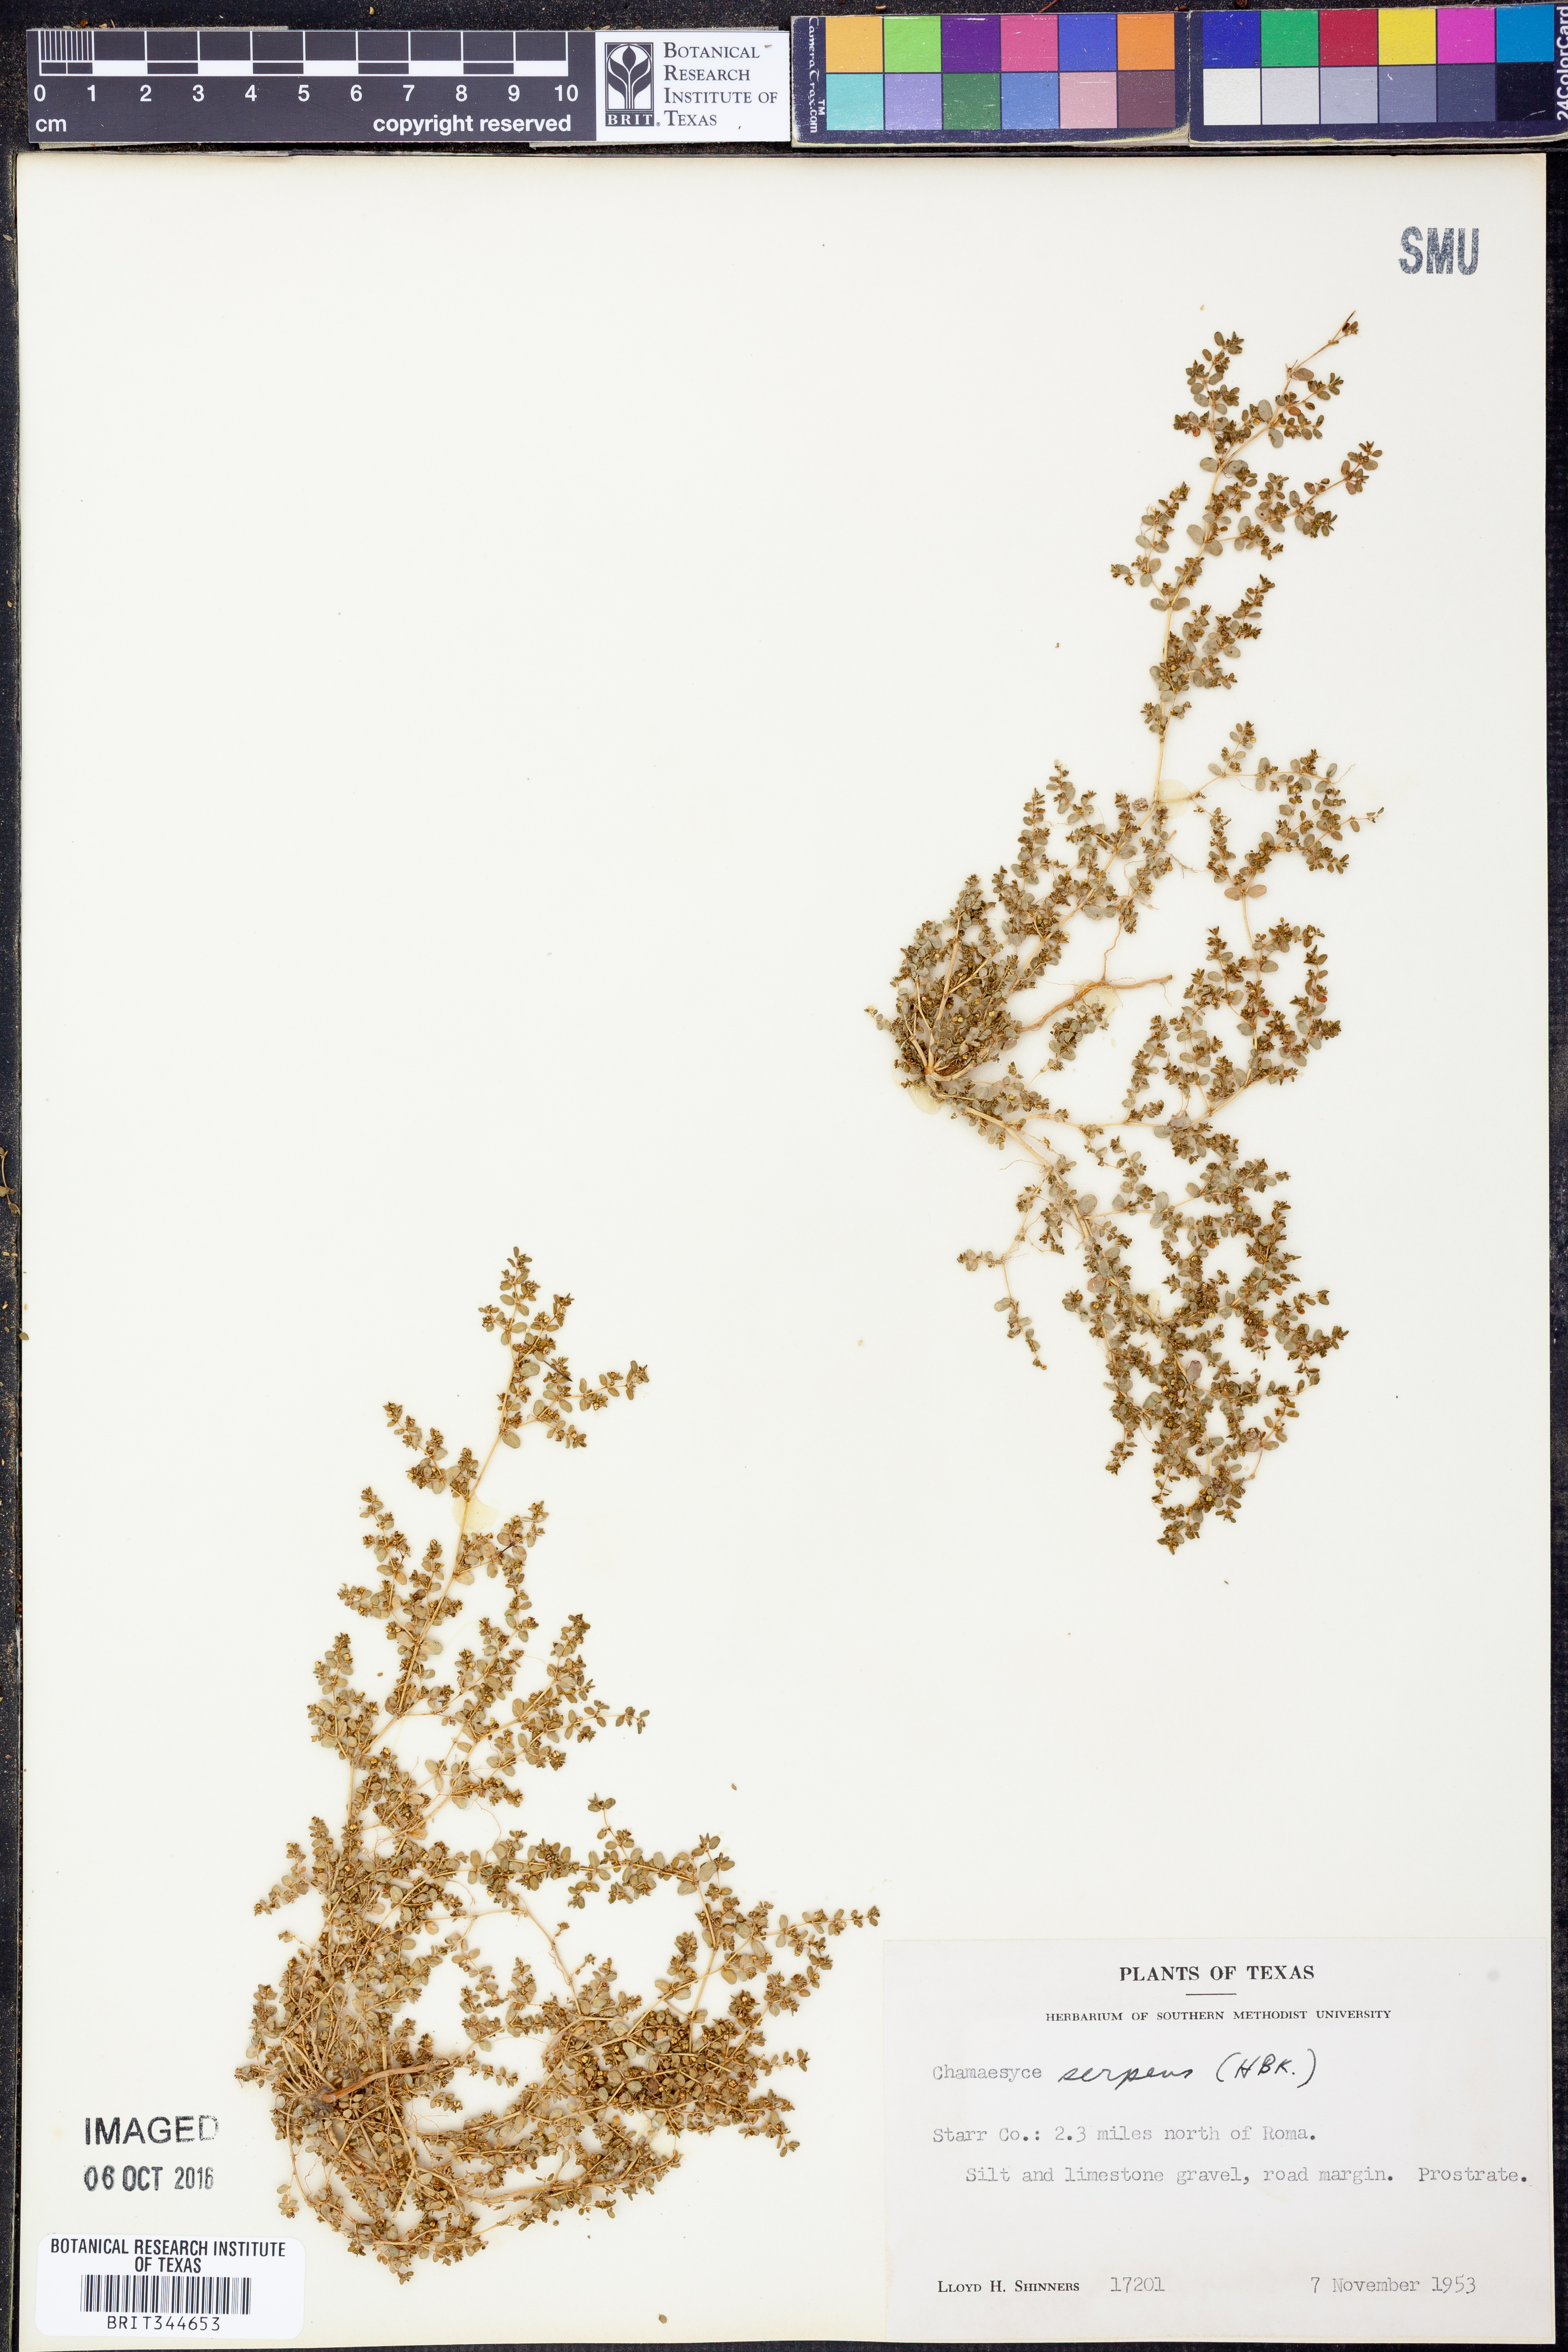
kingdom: Plantae
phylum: Tracheophyta
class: Magnoliopsida
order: Malpighiales
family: Euphorbiaceae
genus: Euphorbia
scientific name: Euphorbia serpens
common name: Matted sandmat
